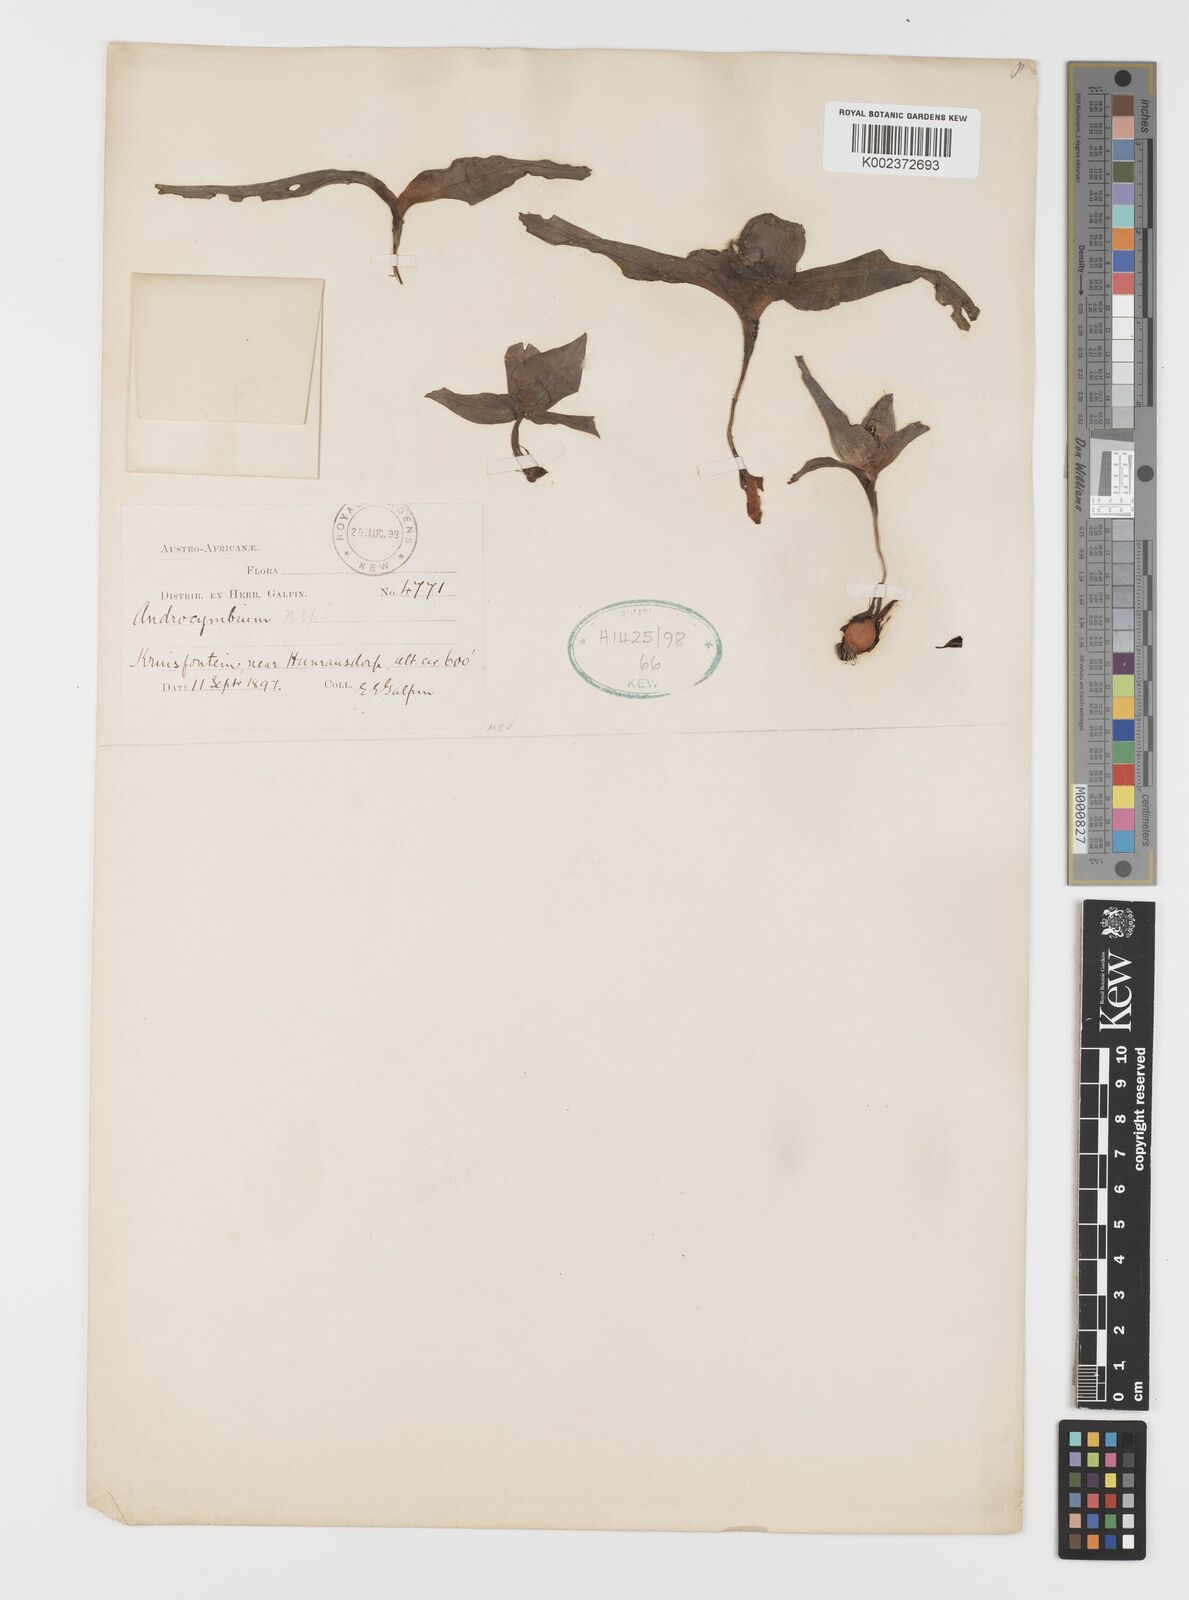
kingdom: Plantae
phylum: Tracheophyta
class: Liliopsida
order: Liliales
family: Colchicaceae
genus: Colchicum
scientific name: Colchicum
